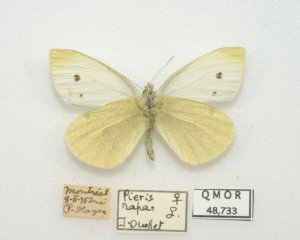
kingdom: Animalia
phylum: Arthropoda
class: Insecta
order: Lepidoptera
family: Pieridae
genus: Pieris
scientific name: Pieris rapae
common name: Cabbage White
